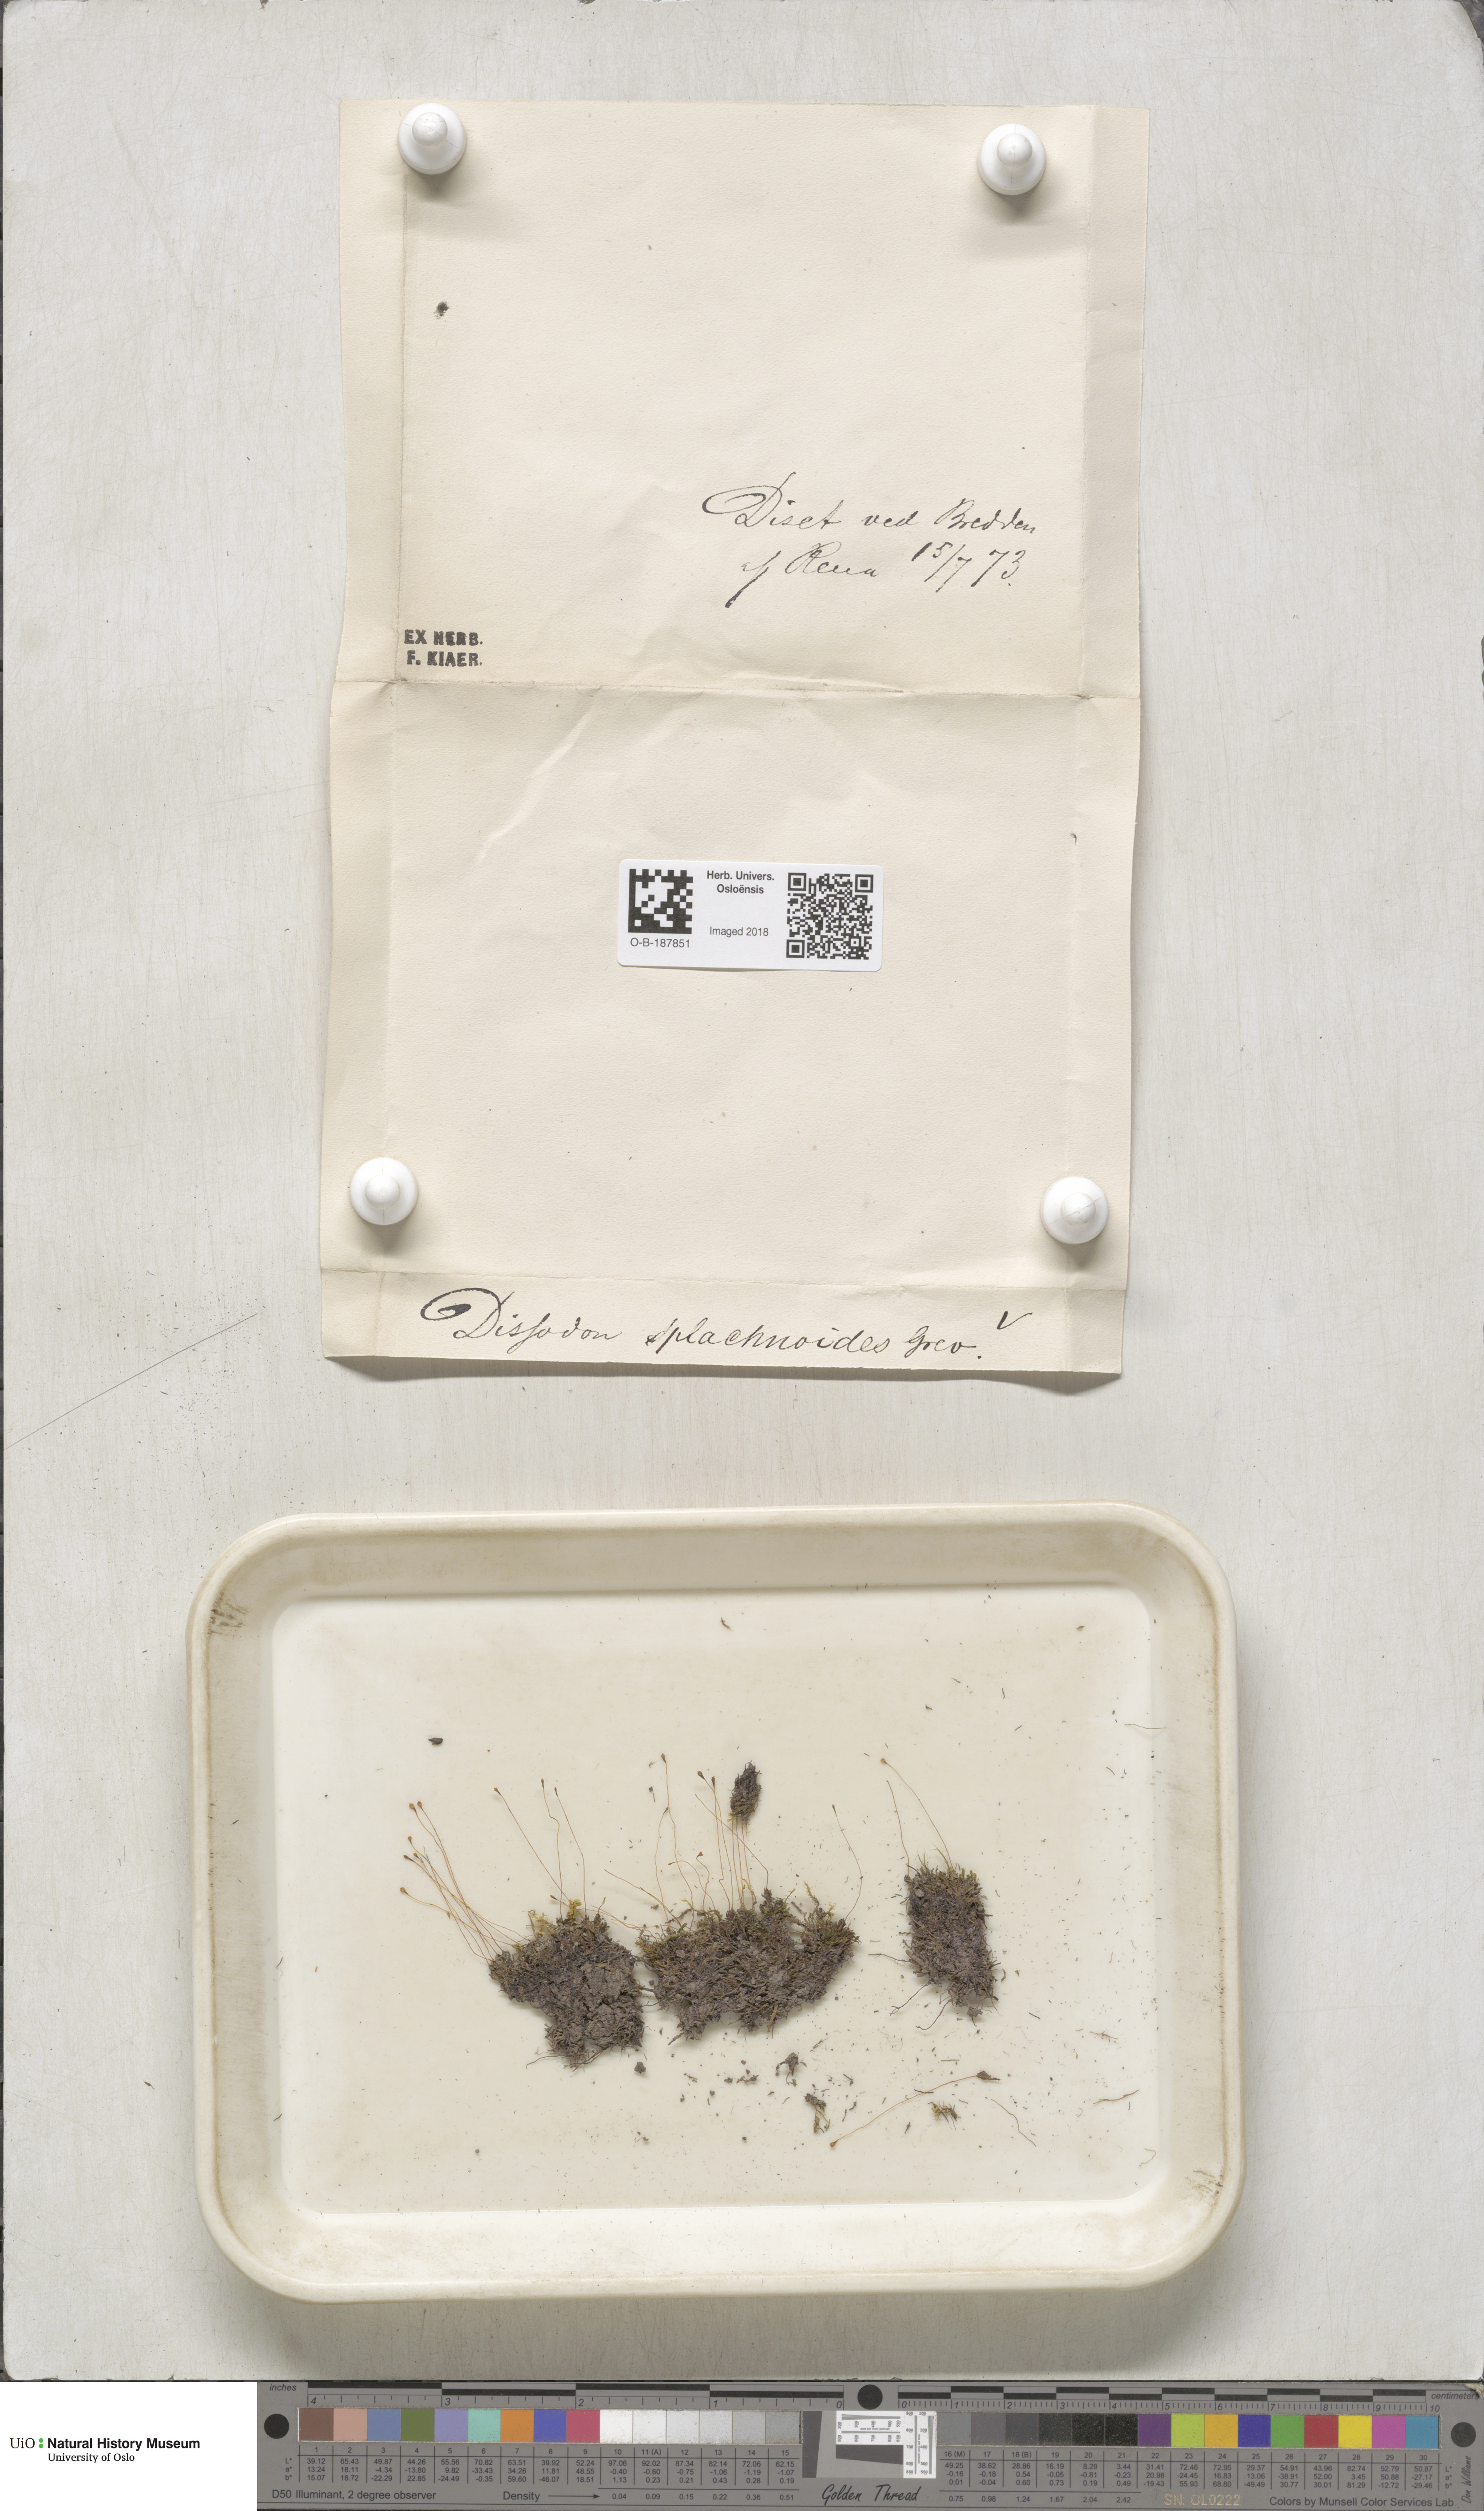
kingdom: Plantae
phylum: Bryophyta
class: Bryopsida
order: Splachnales
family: Splachnaceae
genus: Tayloria
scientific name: Tayloria lingulata
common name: Tongue-leaved trumpet moss
